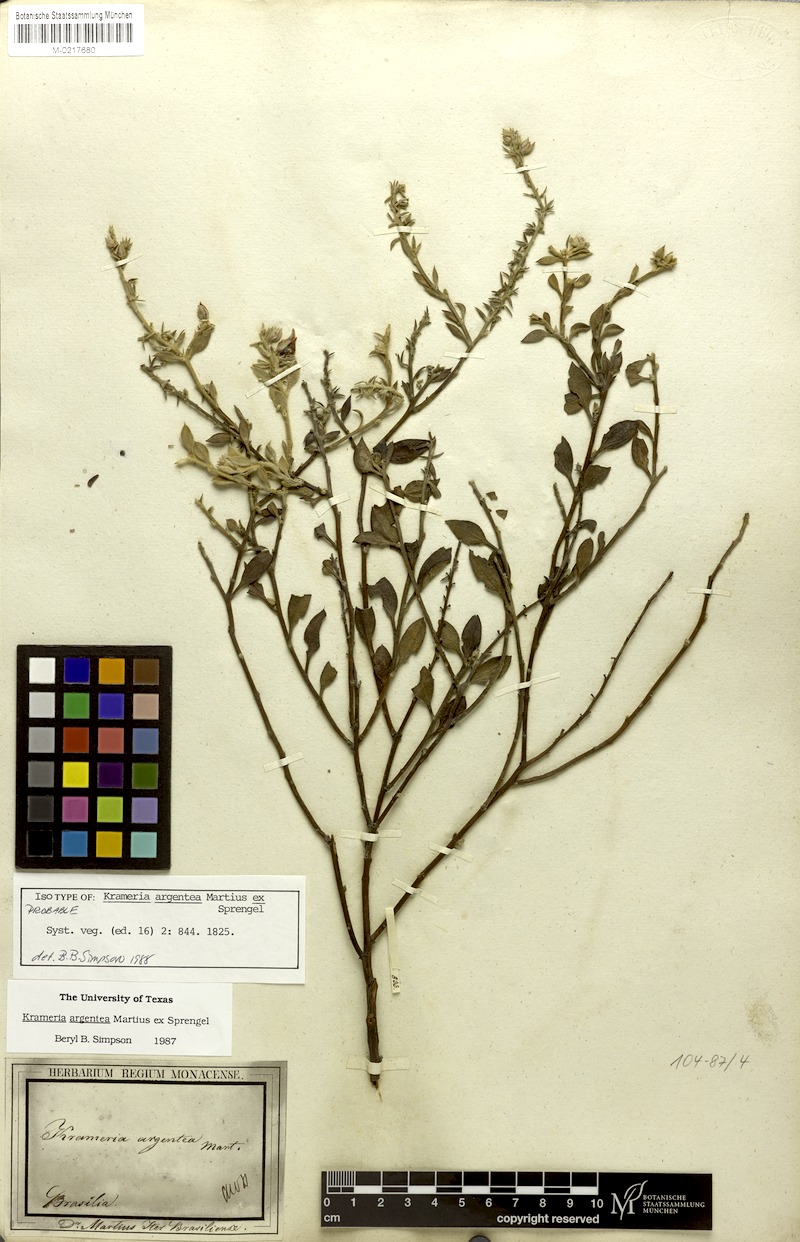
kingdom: Plantae
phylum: Tracheophyta
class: Magnoliopsida
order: Zygophyllales
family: Krameriaceae
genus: Krameria
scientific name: Krameria argentea
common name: Brown-rhatany,-ceará-rhatany
